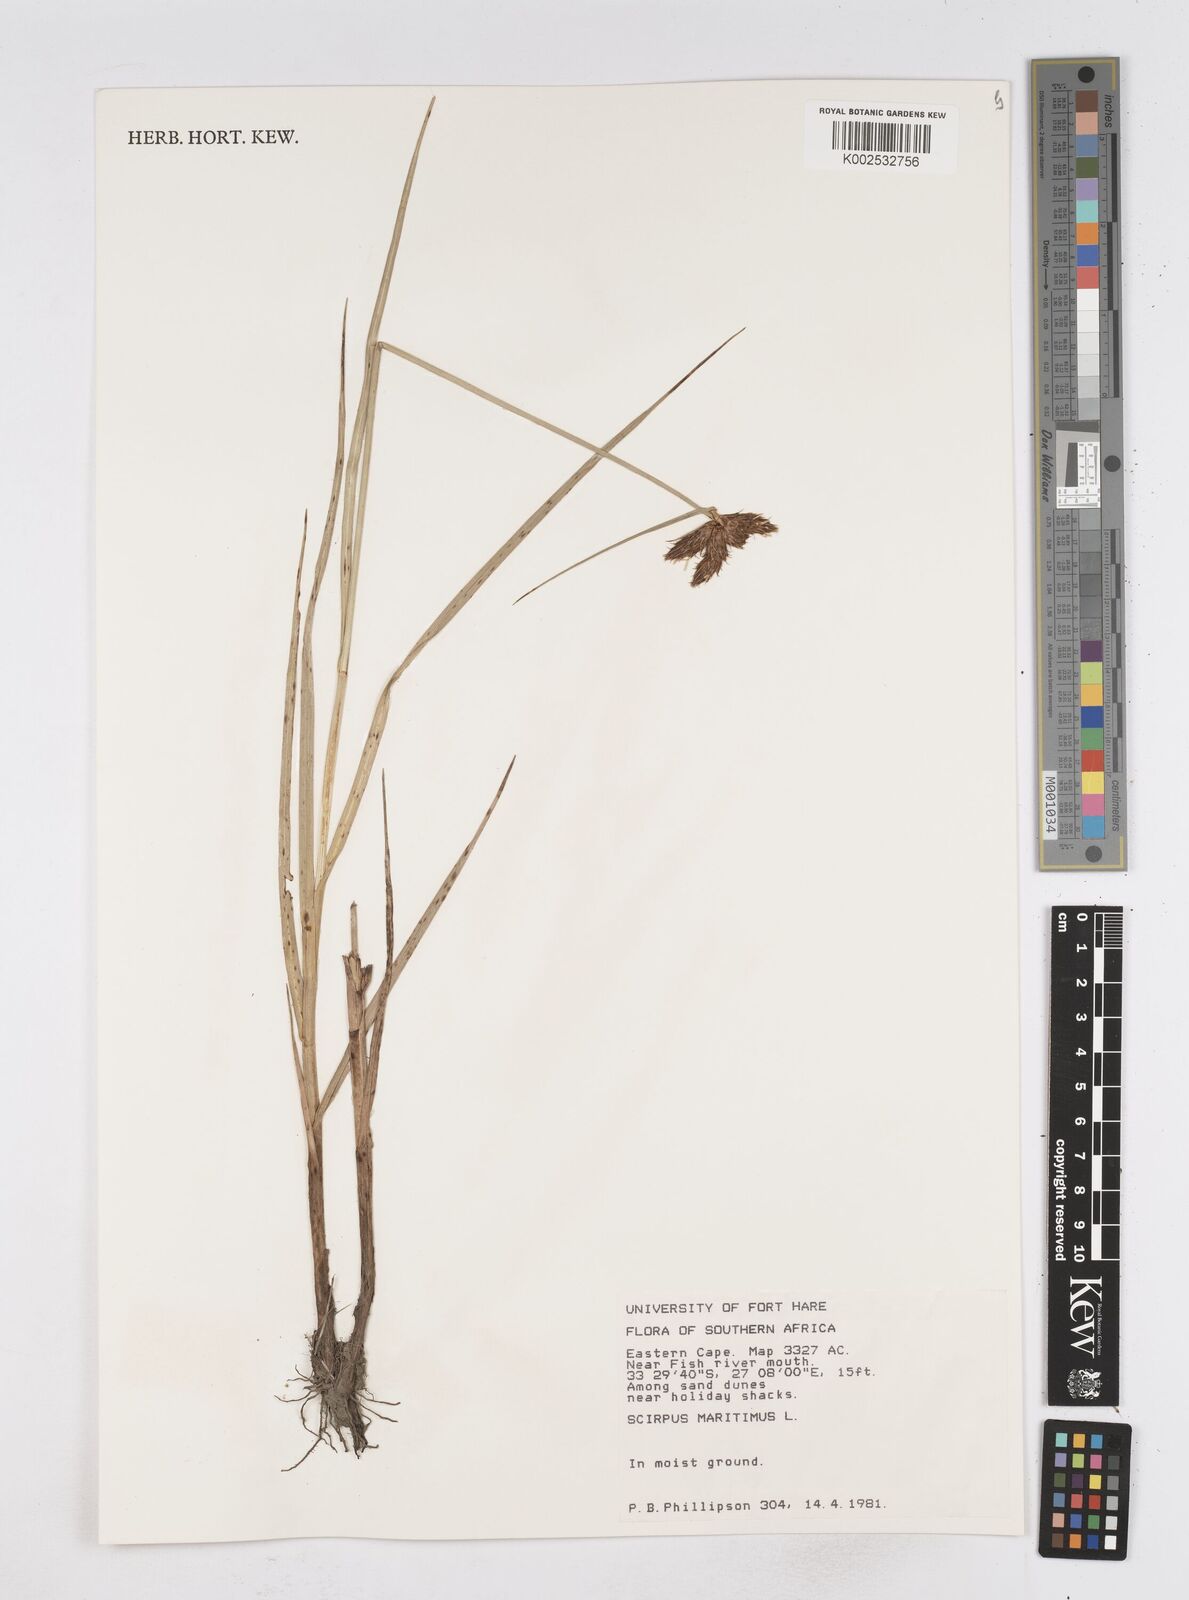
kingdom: Plantae
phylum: Tracheophyta
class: Liliopsida
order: Poales
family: Cyperaceae
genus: Bolboschoenus
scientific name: Bolboschoenus maritimus
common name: Sea club-rush
